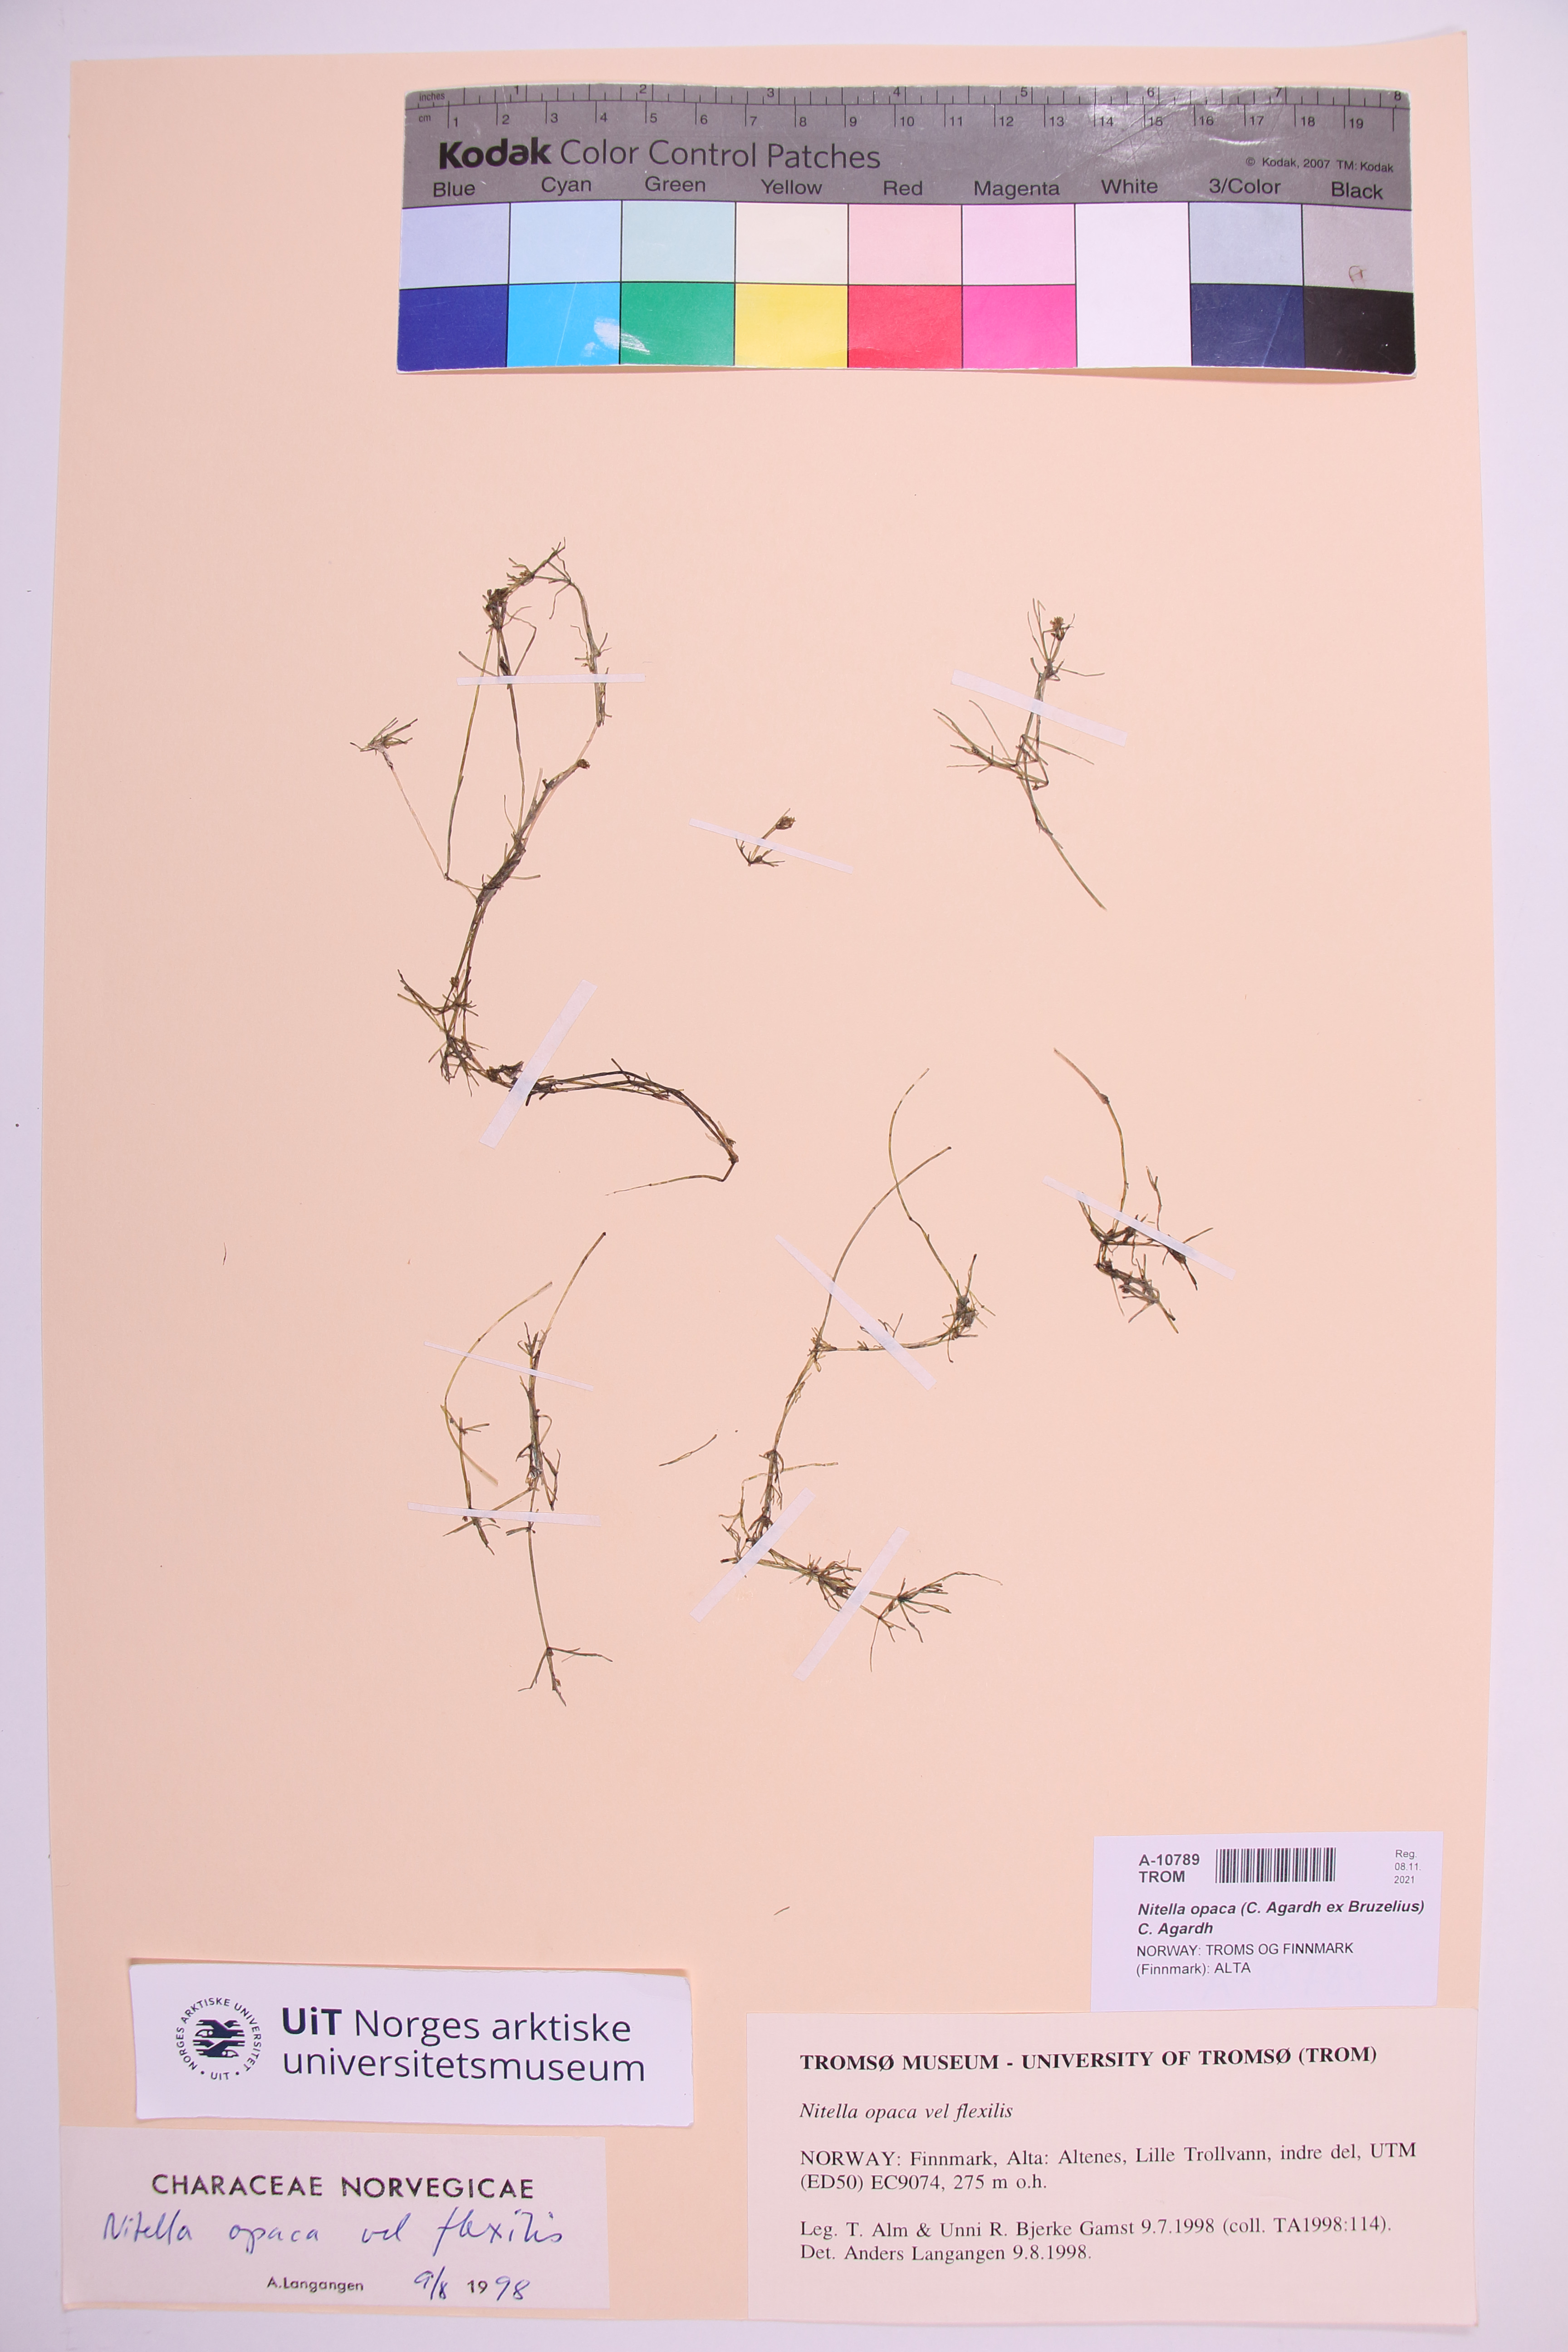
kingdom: Plantae
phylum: Charophyta
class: Charophyceae
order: Charales
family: Characeae
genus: Nitella
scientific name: Nitella opaca
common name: Dark stonewort
